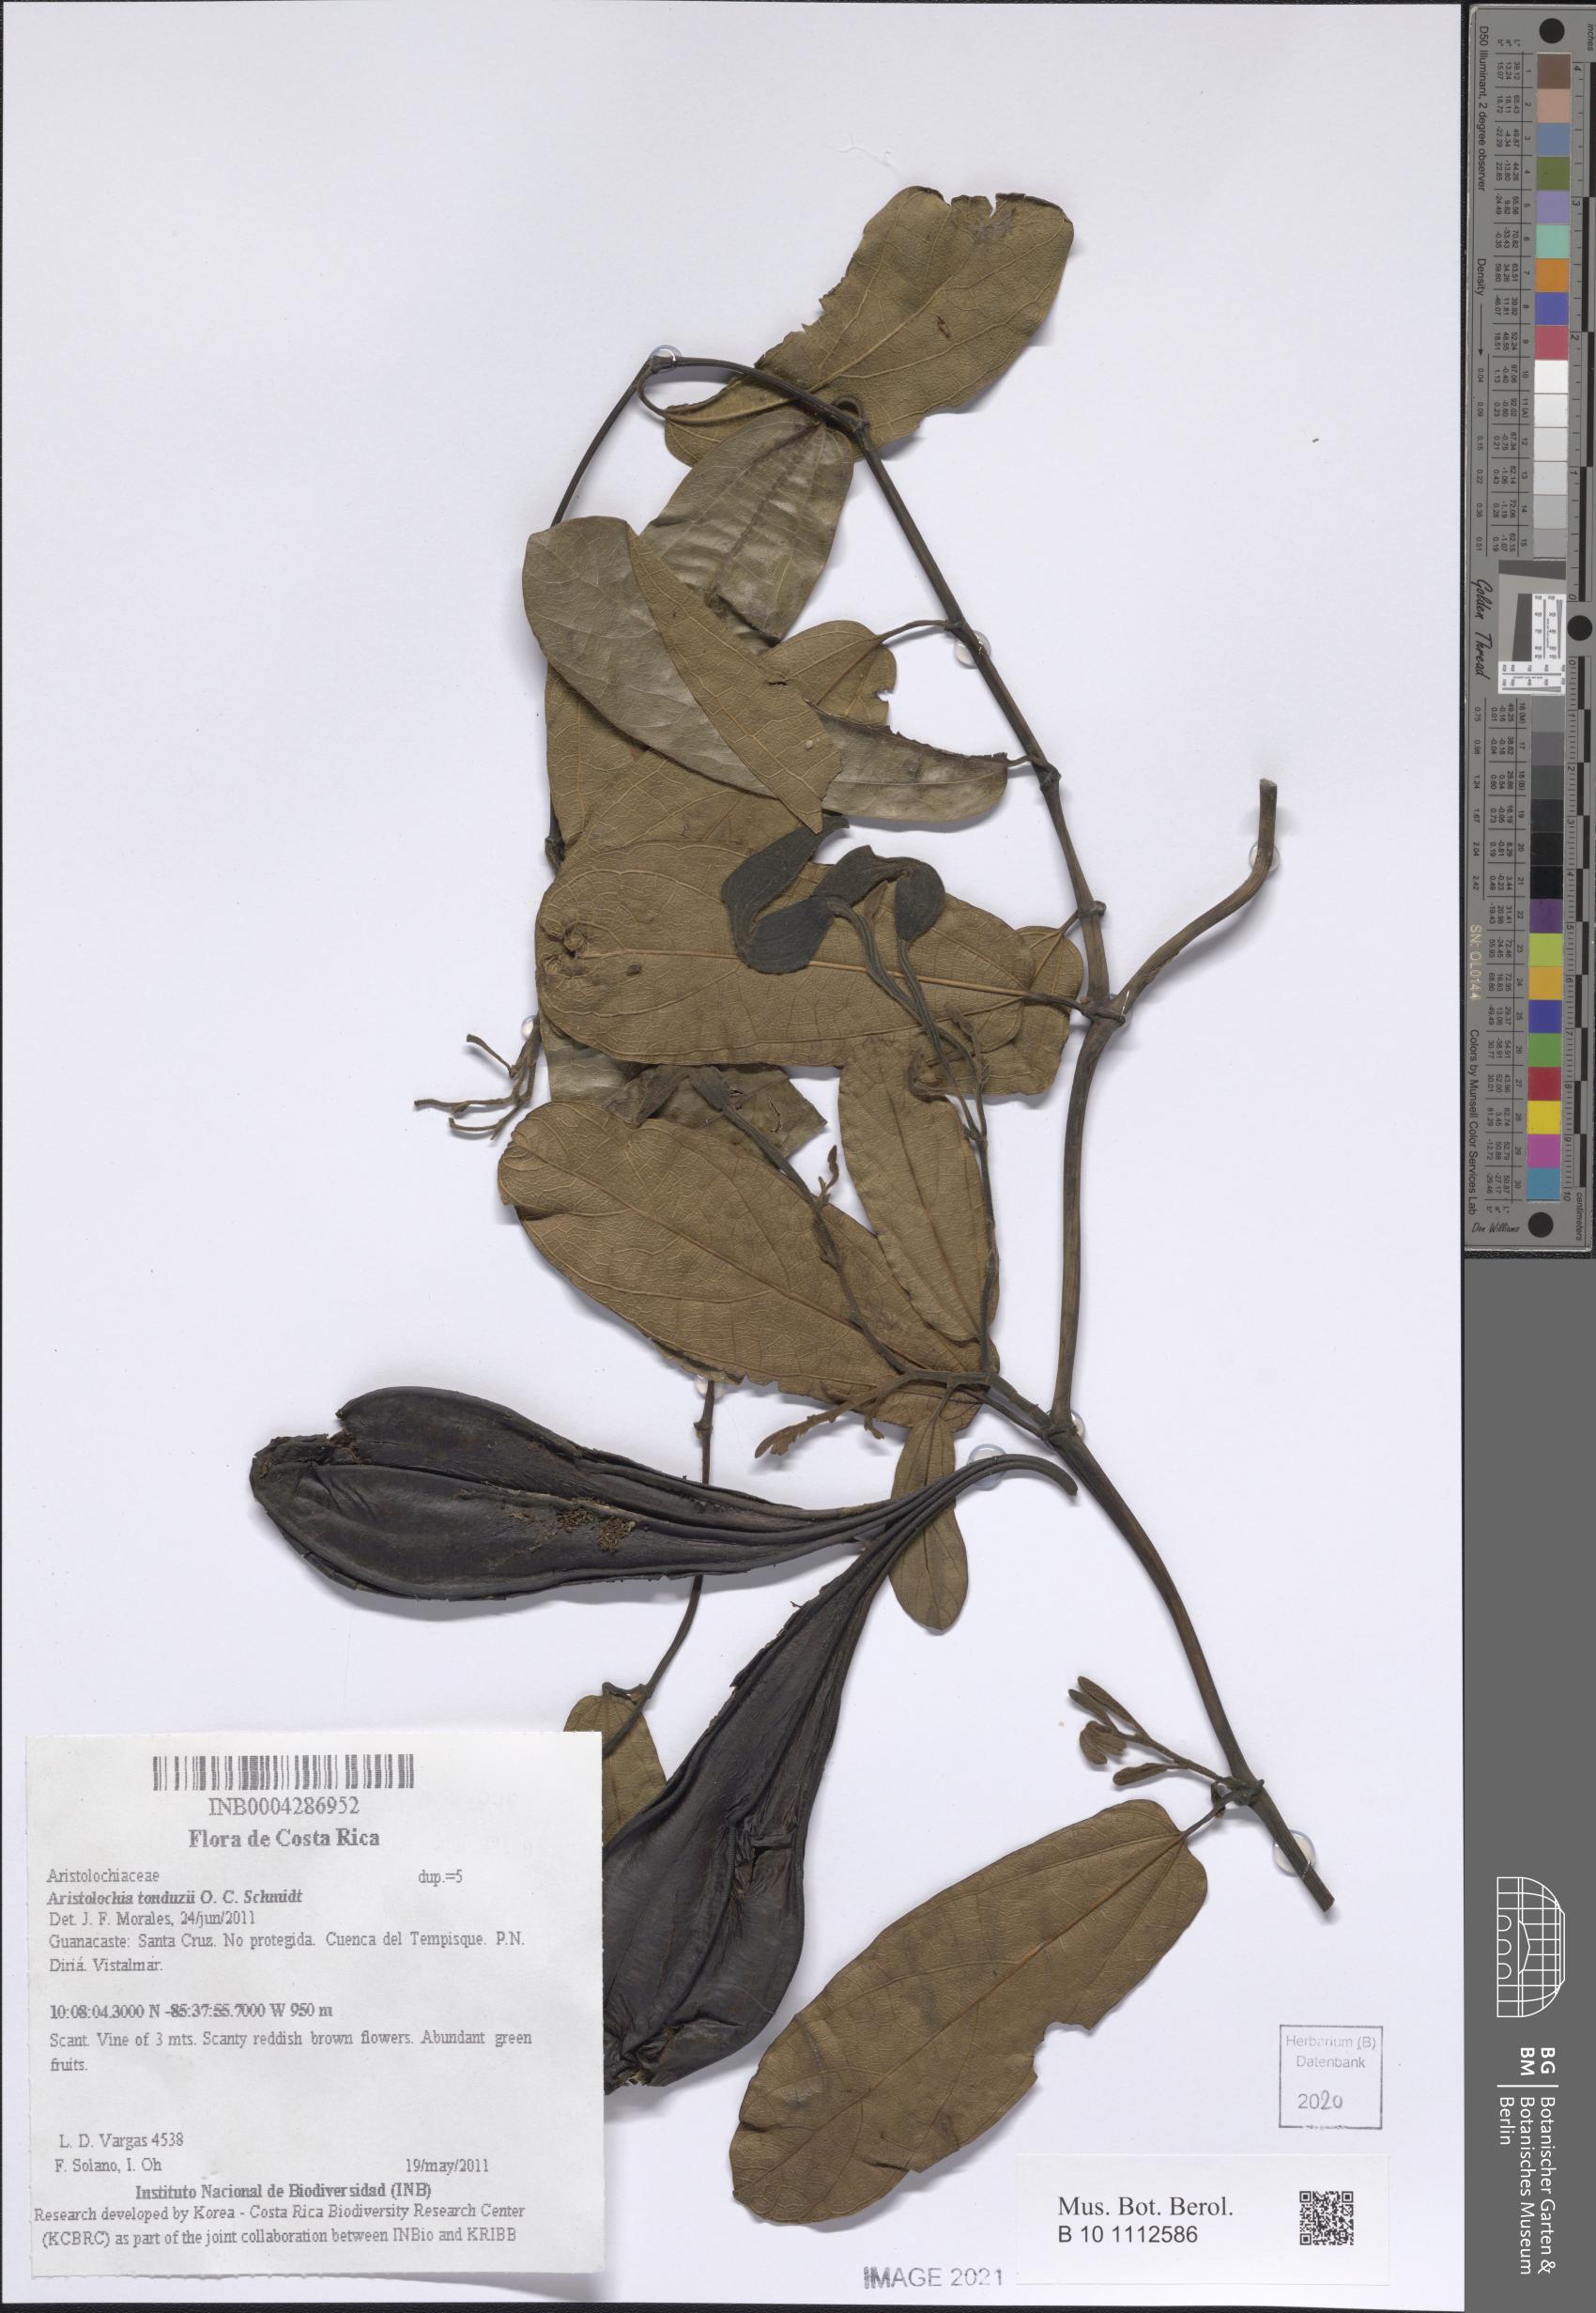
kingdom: Plantae
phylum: Tracheophyta
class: Magnoliopsida
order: Piperales
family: Aristolochiaceae
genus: Aristolochia
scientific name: Aristolochia tonduzii
